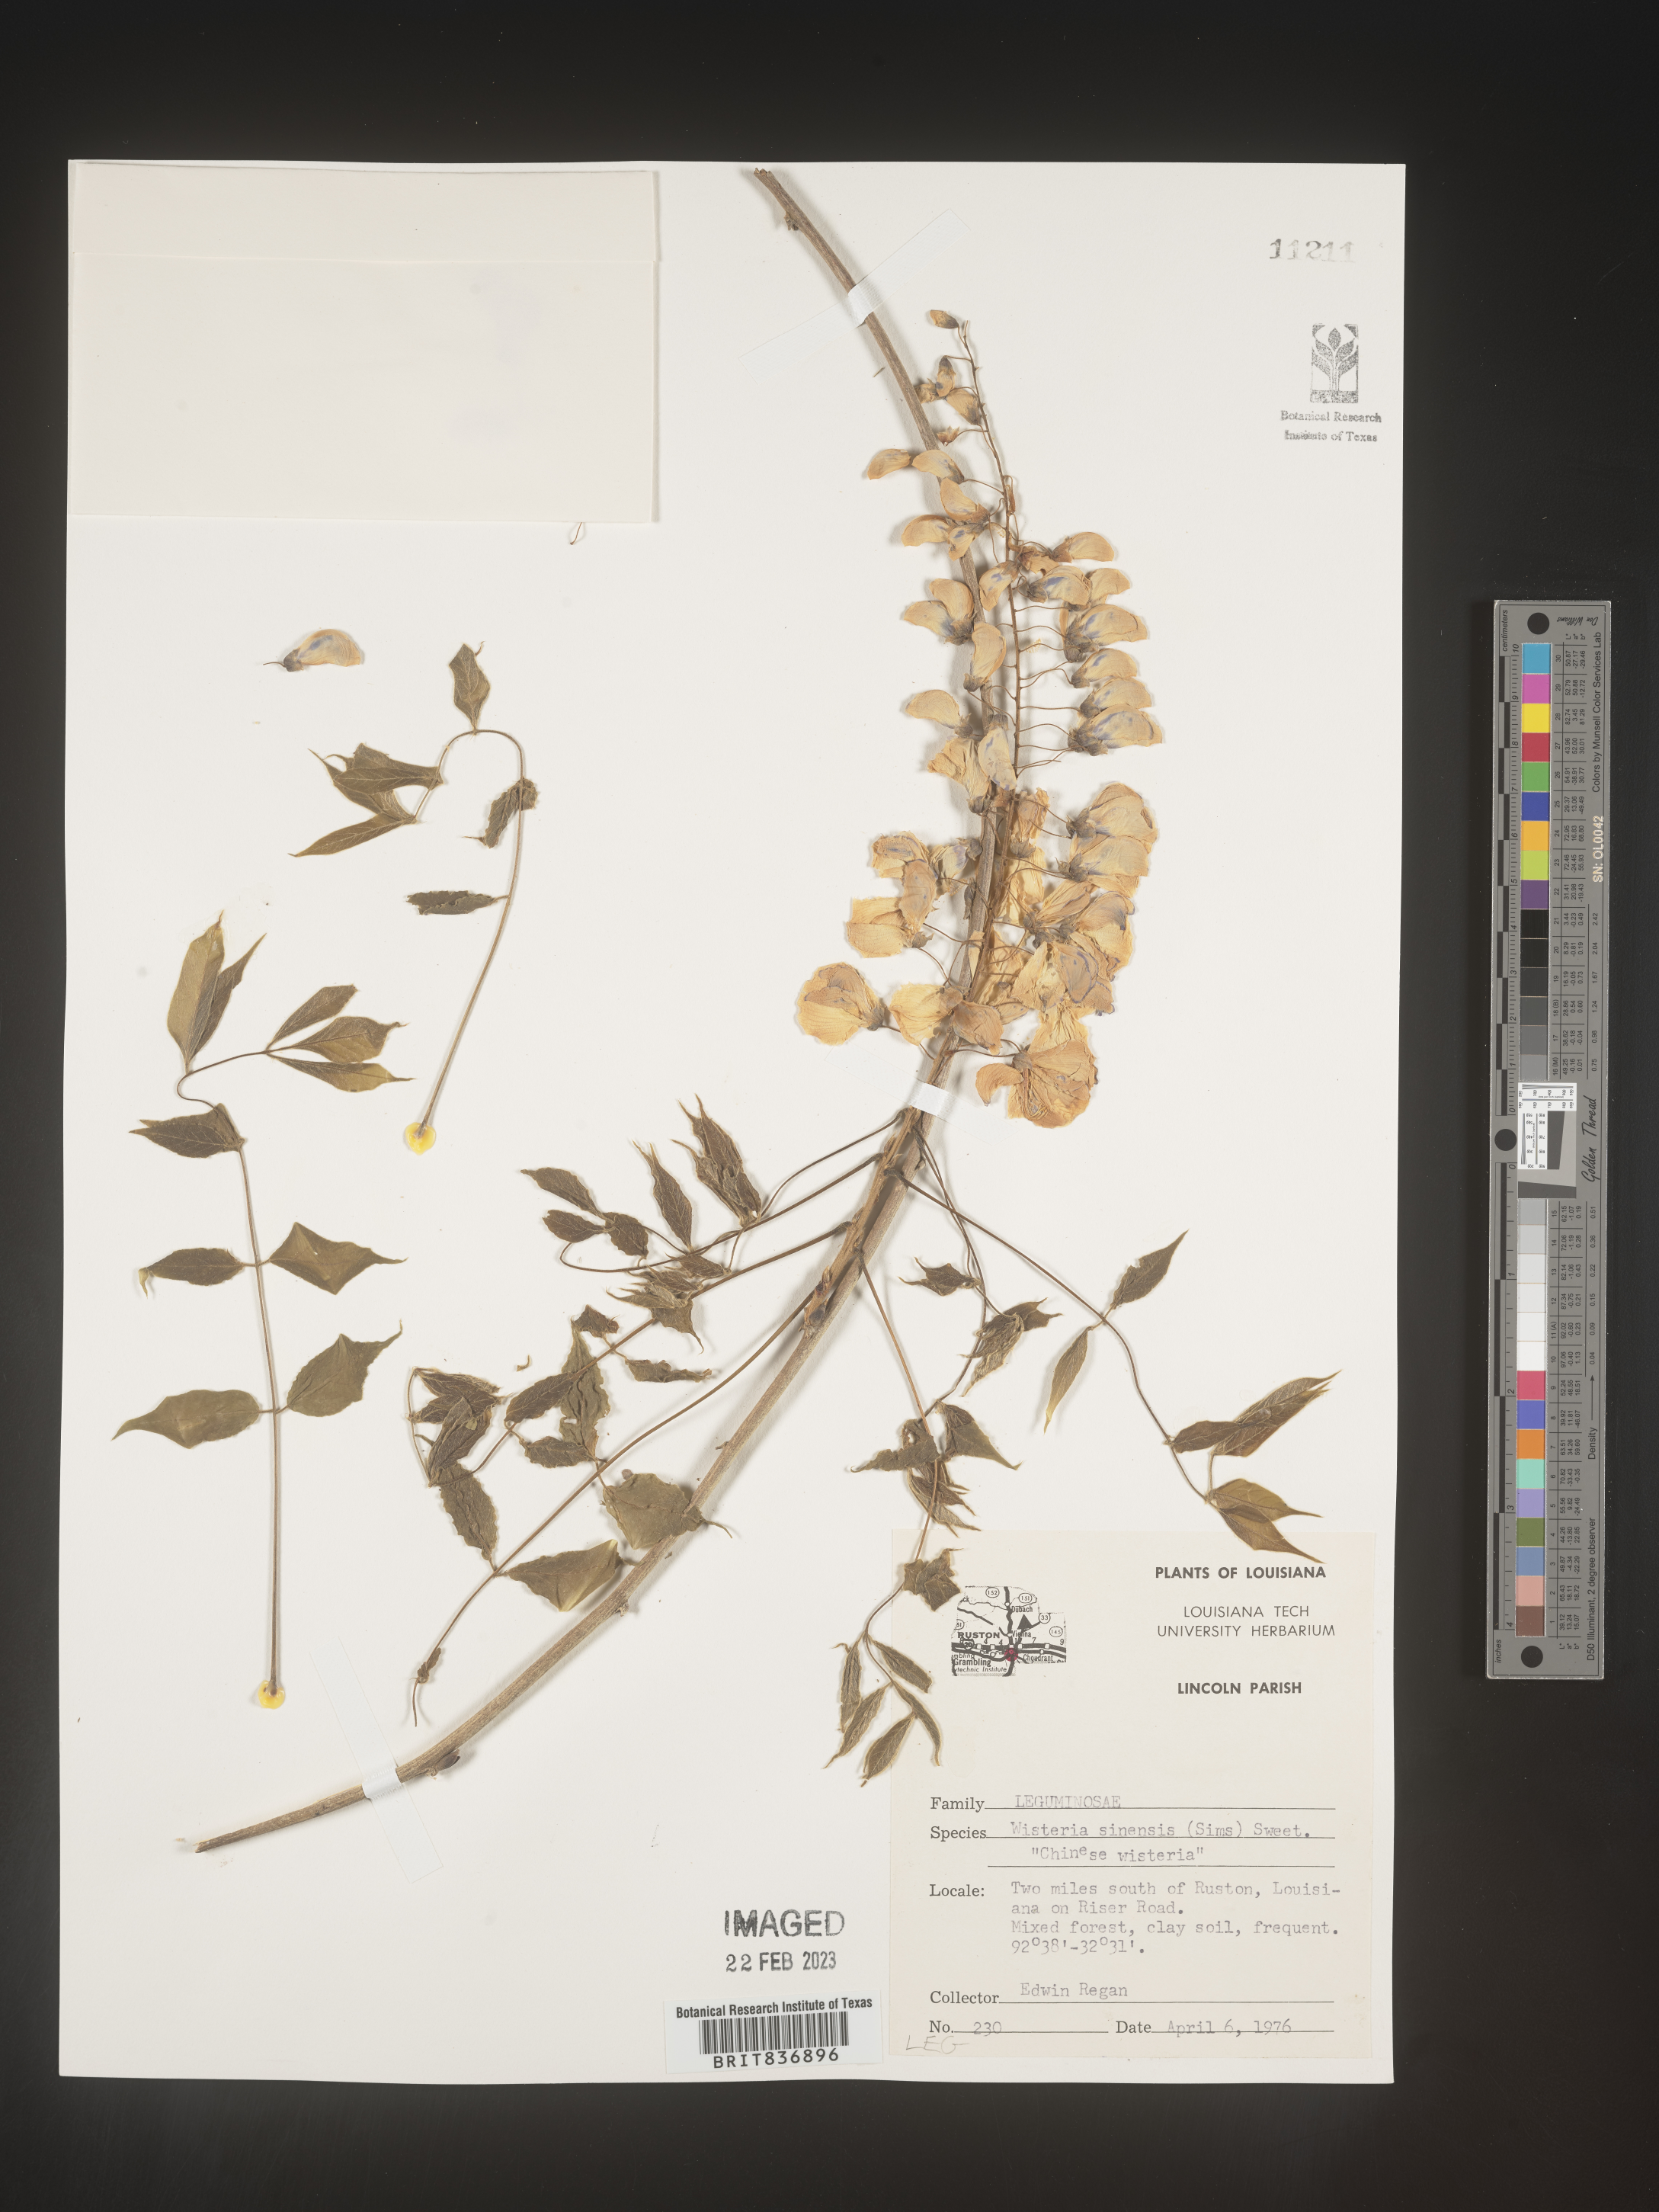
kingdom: Plantae
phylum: Tracheophyta
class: Magnoliopsida
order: Fabales
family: Fabaceae
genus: Wisteria
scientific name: Wisteria sinensis
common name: Chinese wisteria
